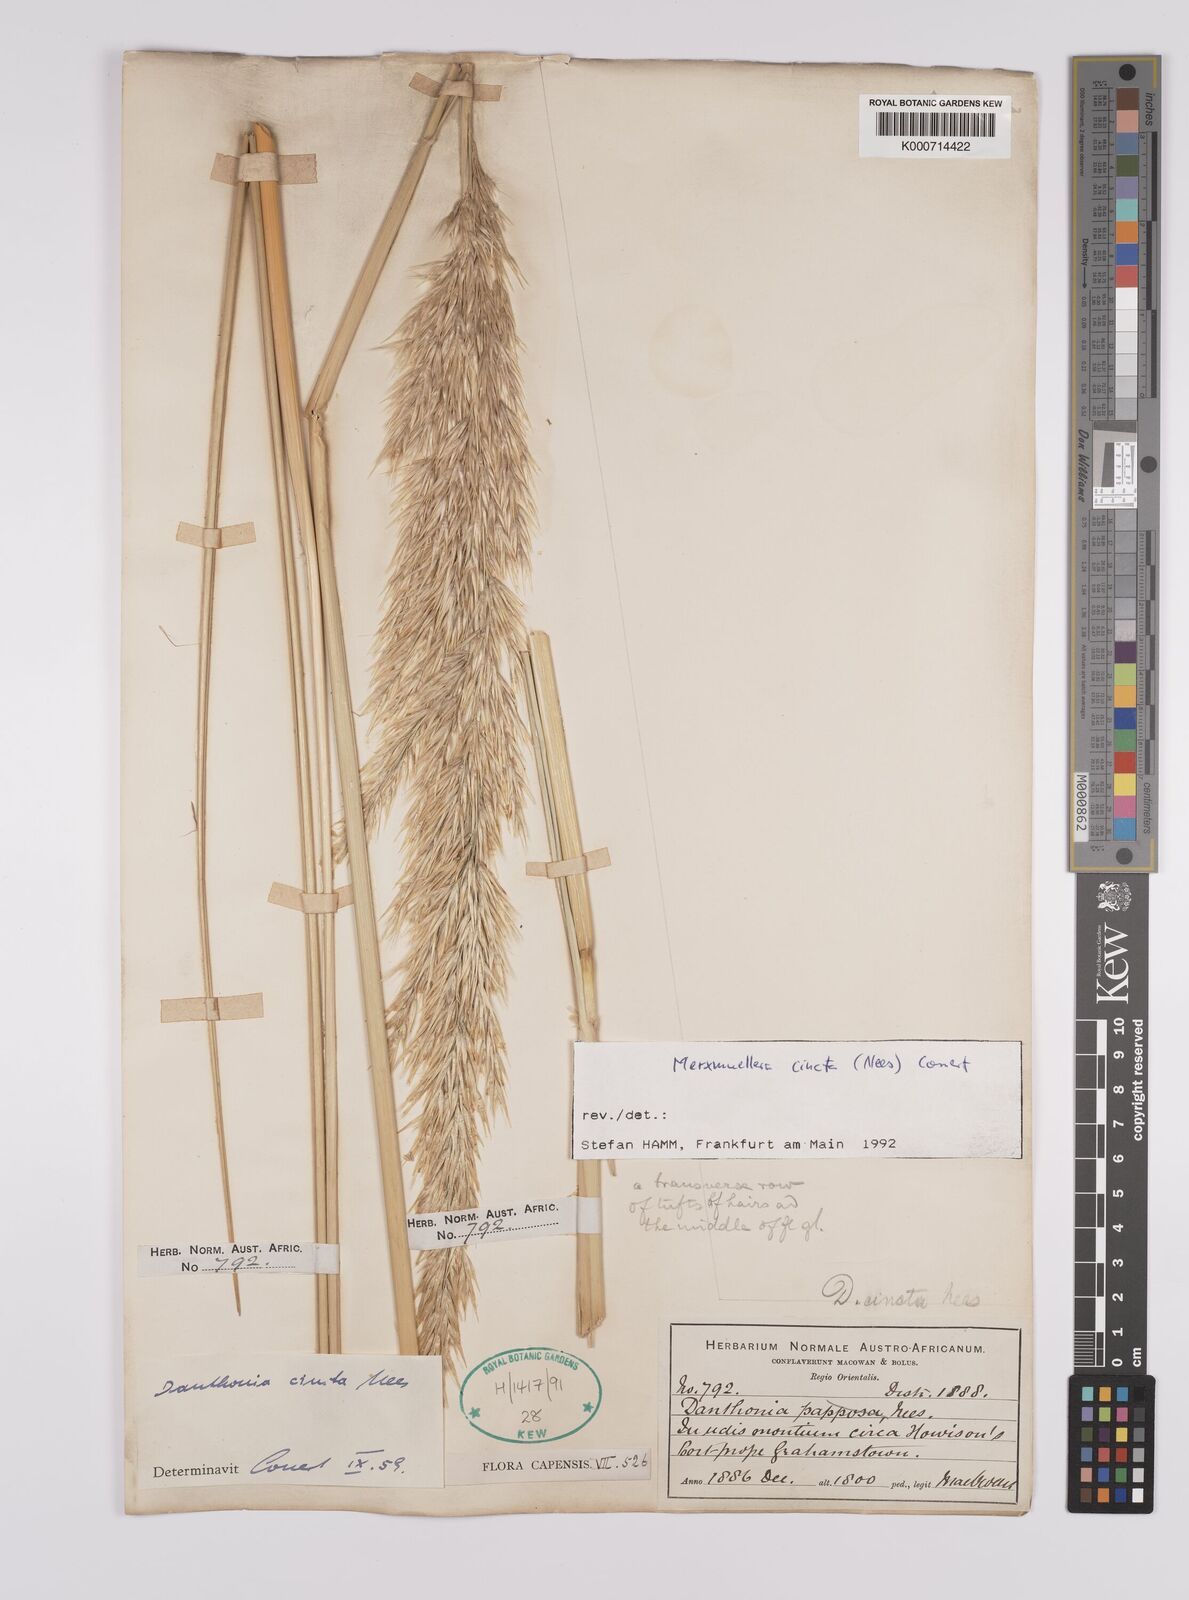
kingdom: Plantae
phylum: Tracheophyta
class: Liliopsida
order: Poales
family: Poaceae
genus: Rytidosperma
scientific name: Rytidosperma
